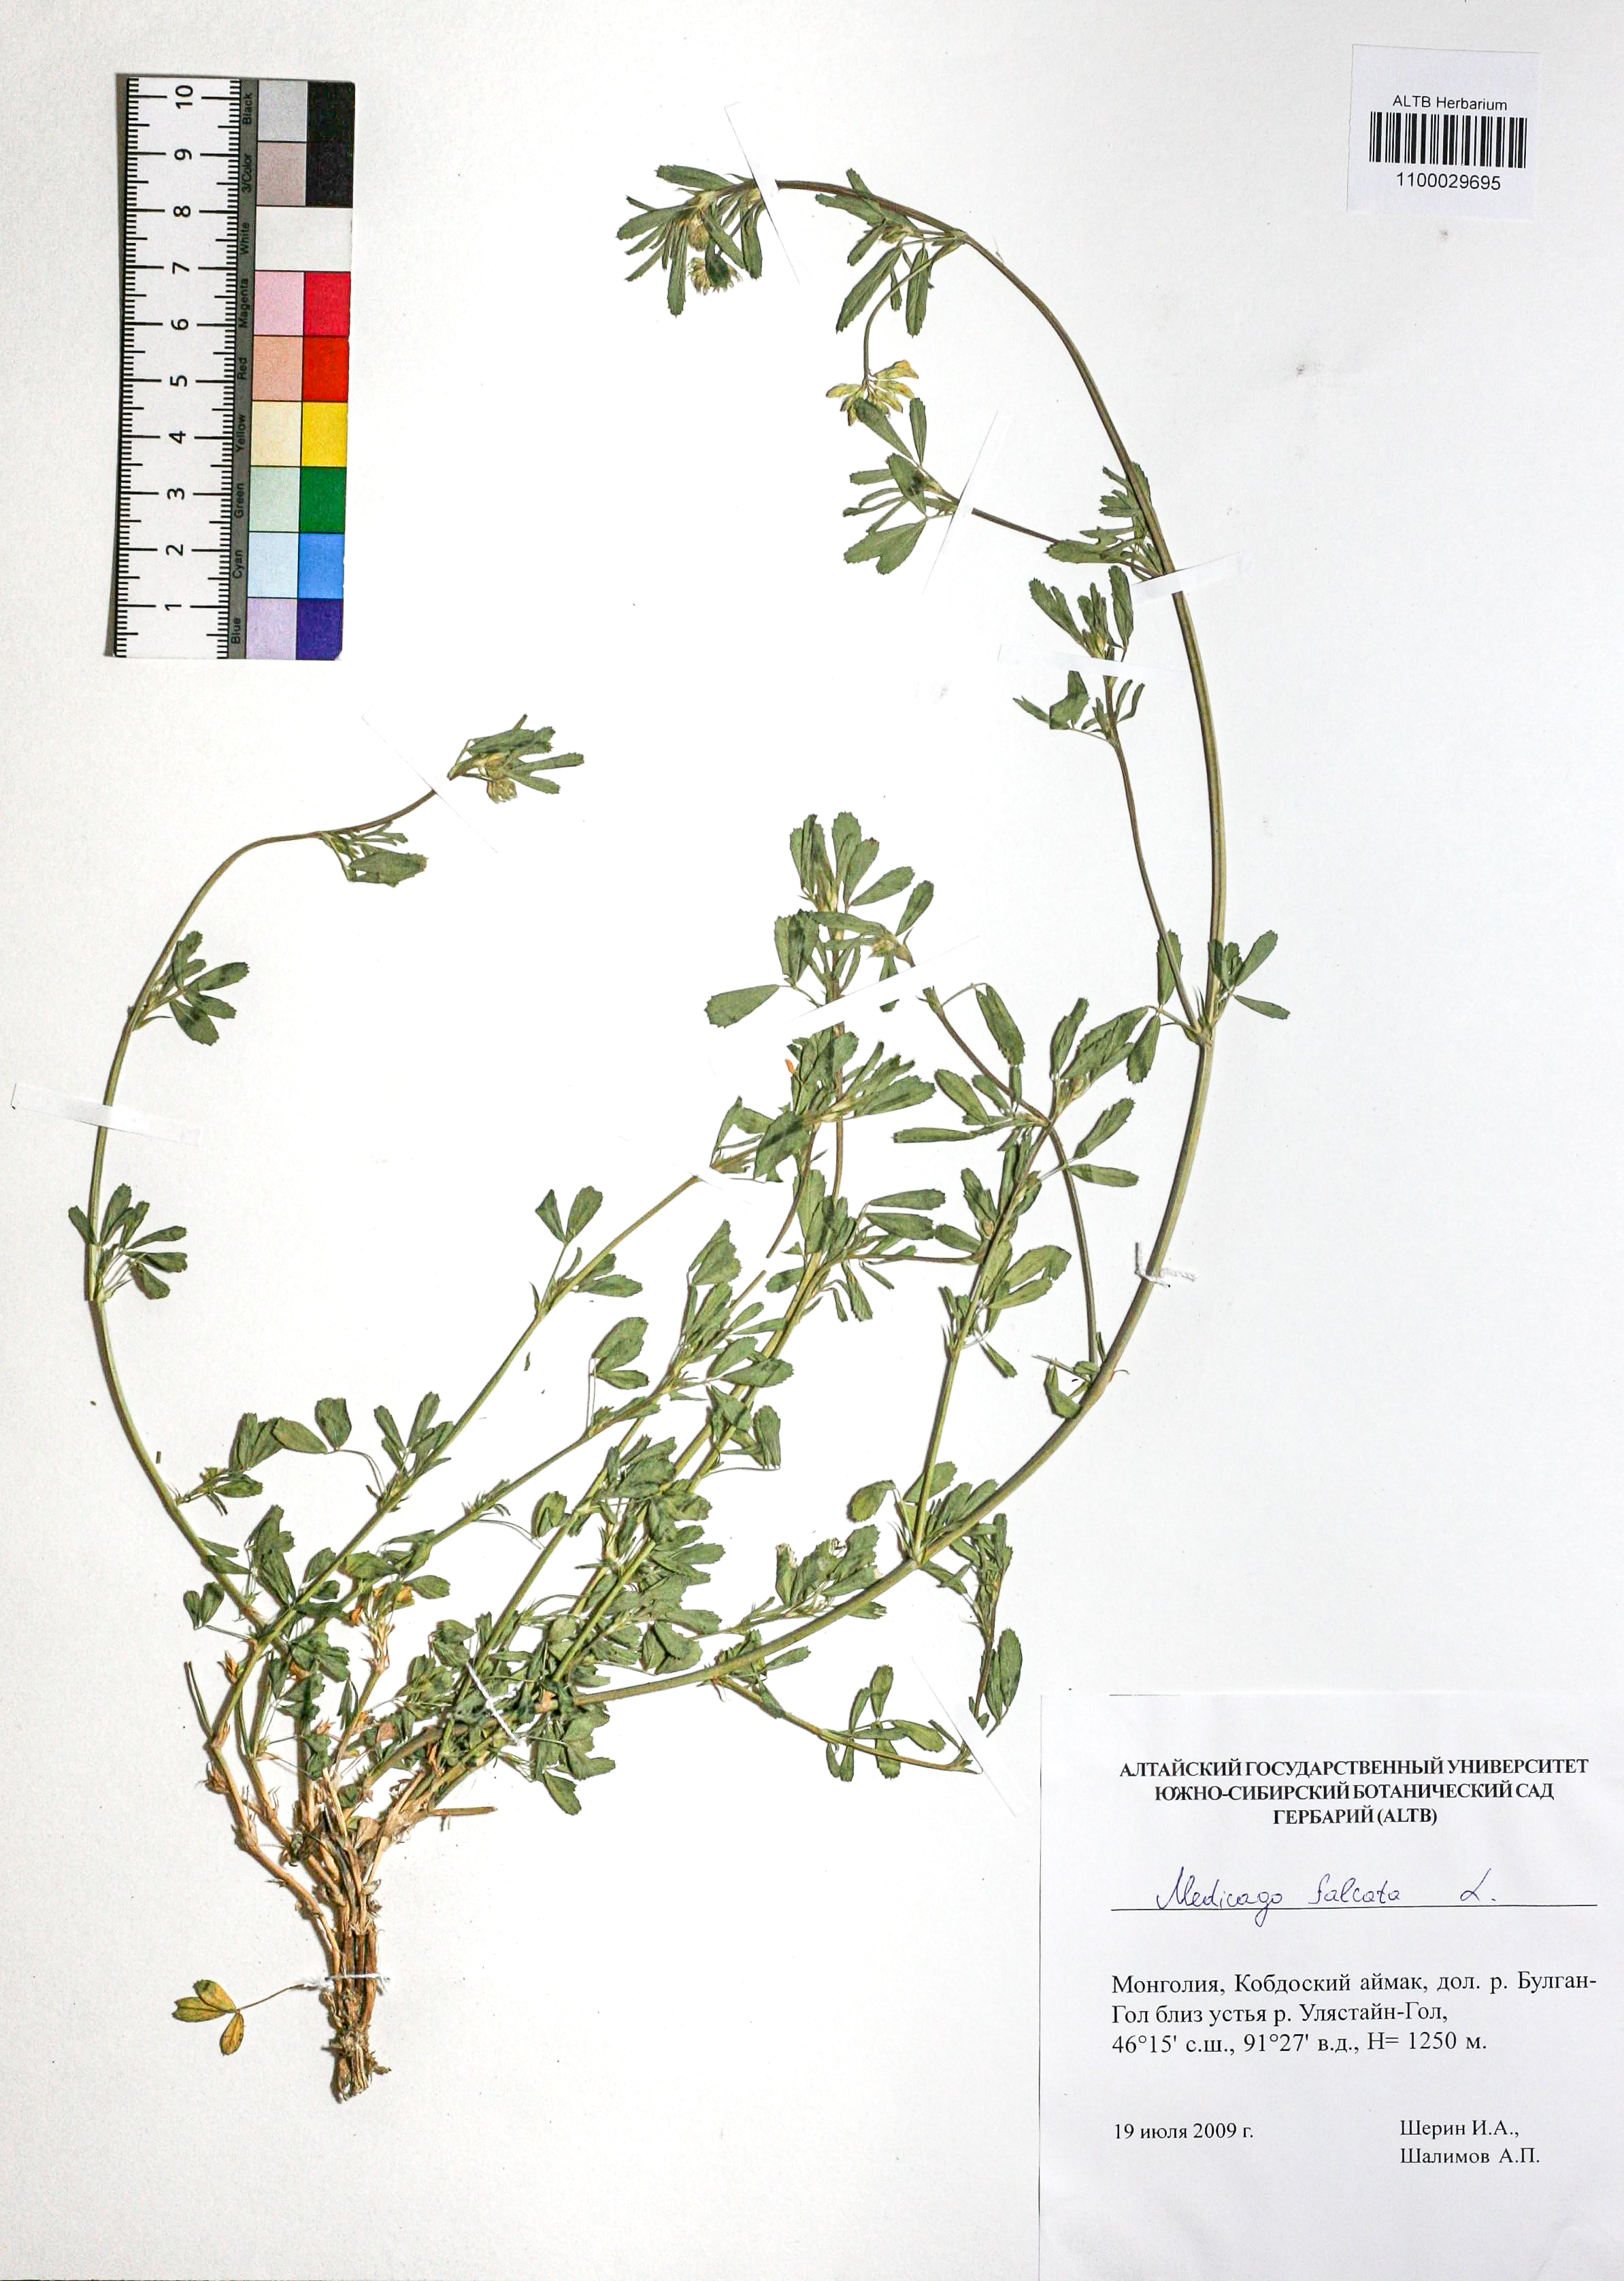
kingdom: Plantae
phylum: Tracheophyta
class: Magnoliopsida
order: Fabales
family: Fabaceae
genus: Medicago
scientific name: Medicago falcata
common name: Sickle medick
